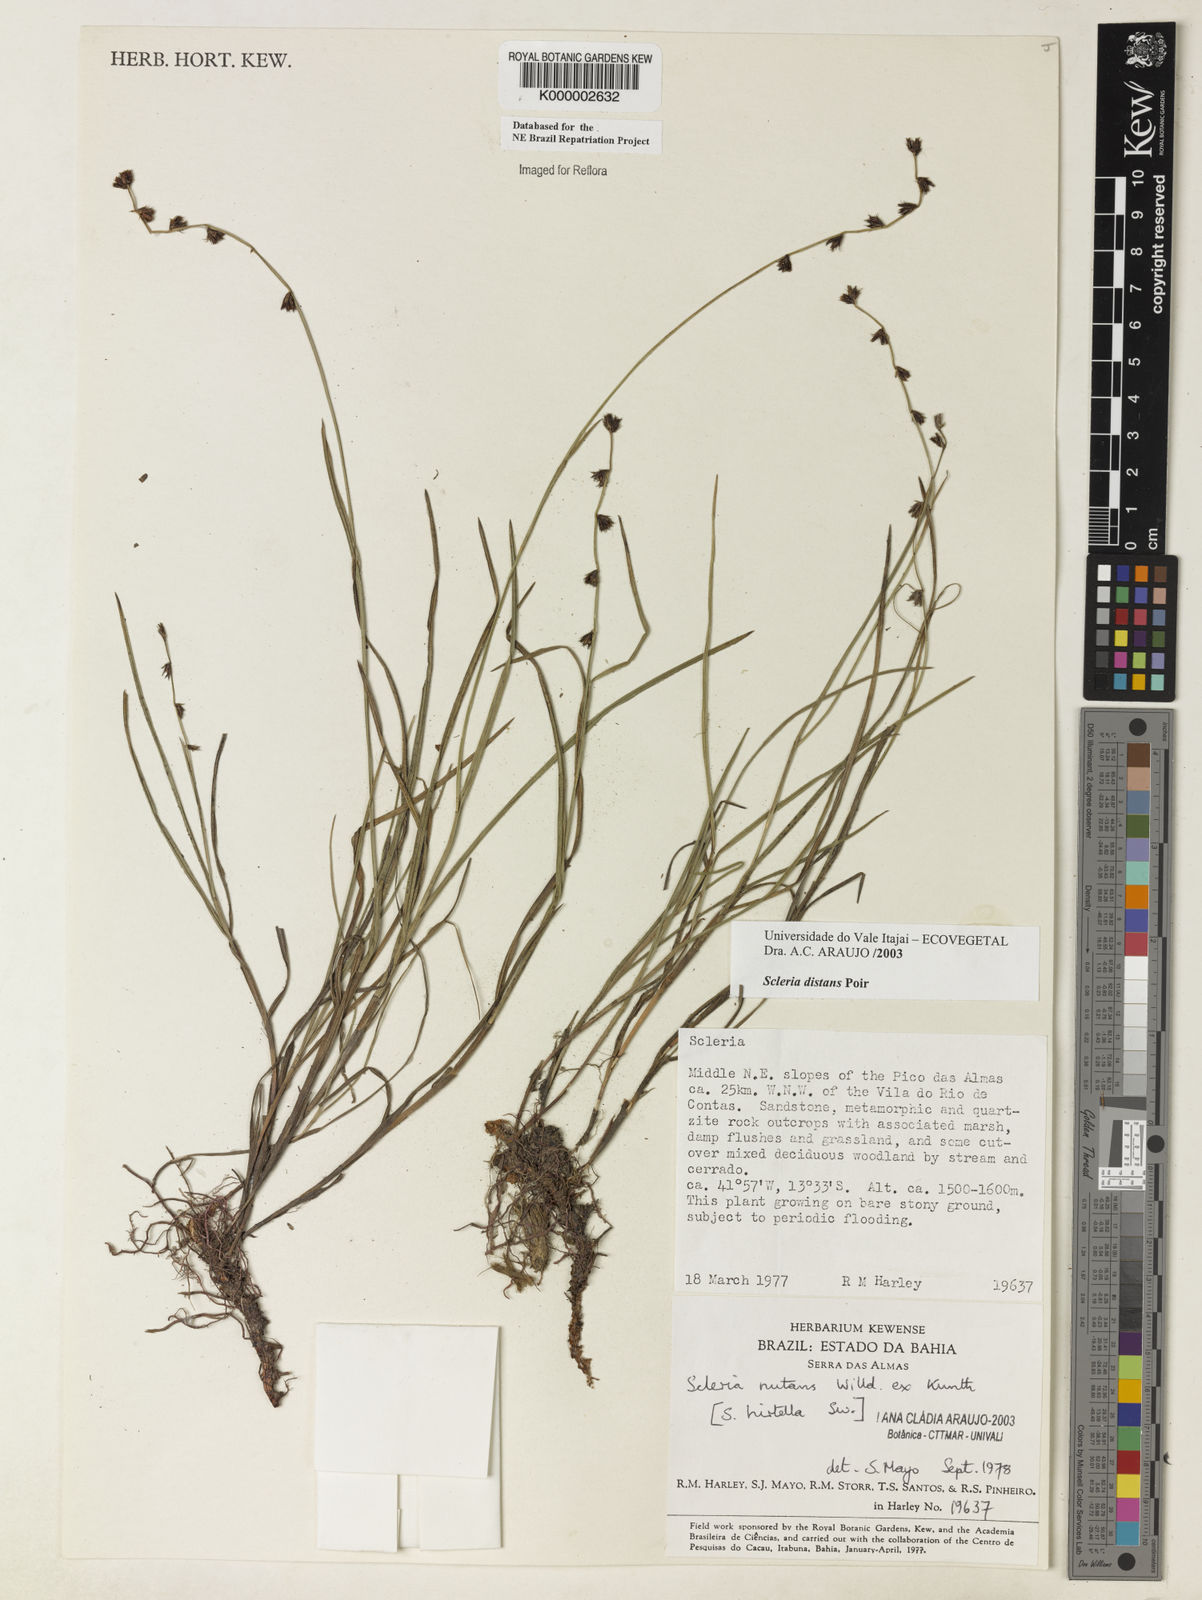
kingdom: Plantae
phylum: Tracheophyta
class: Liliopsida
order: Poales
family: Cyperaceae
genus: Scleria
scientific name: Scleria distans
